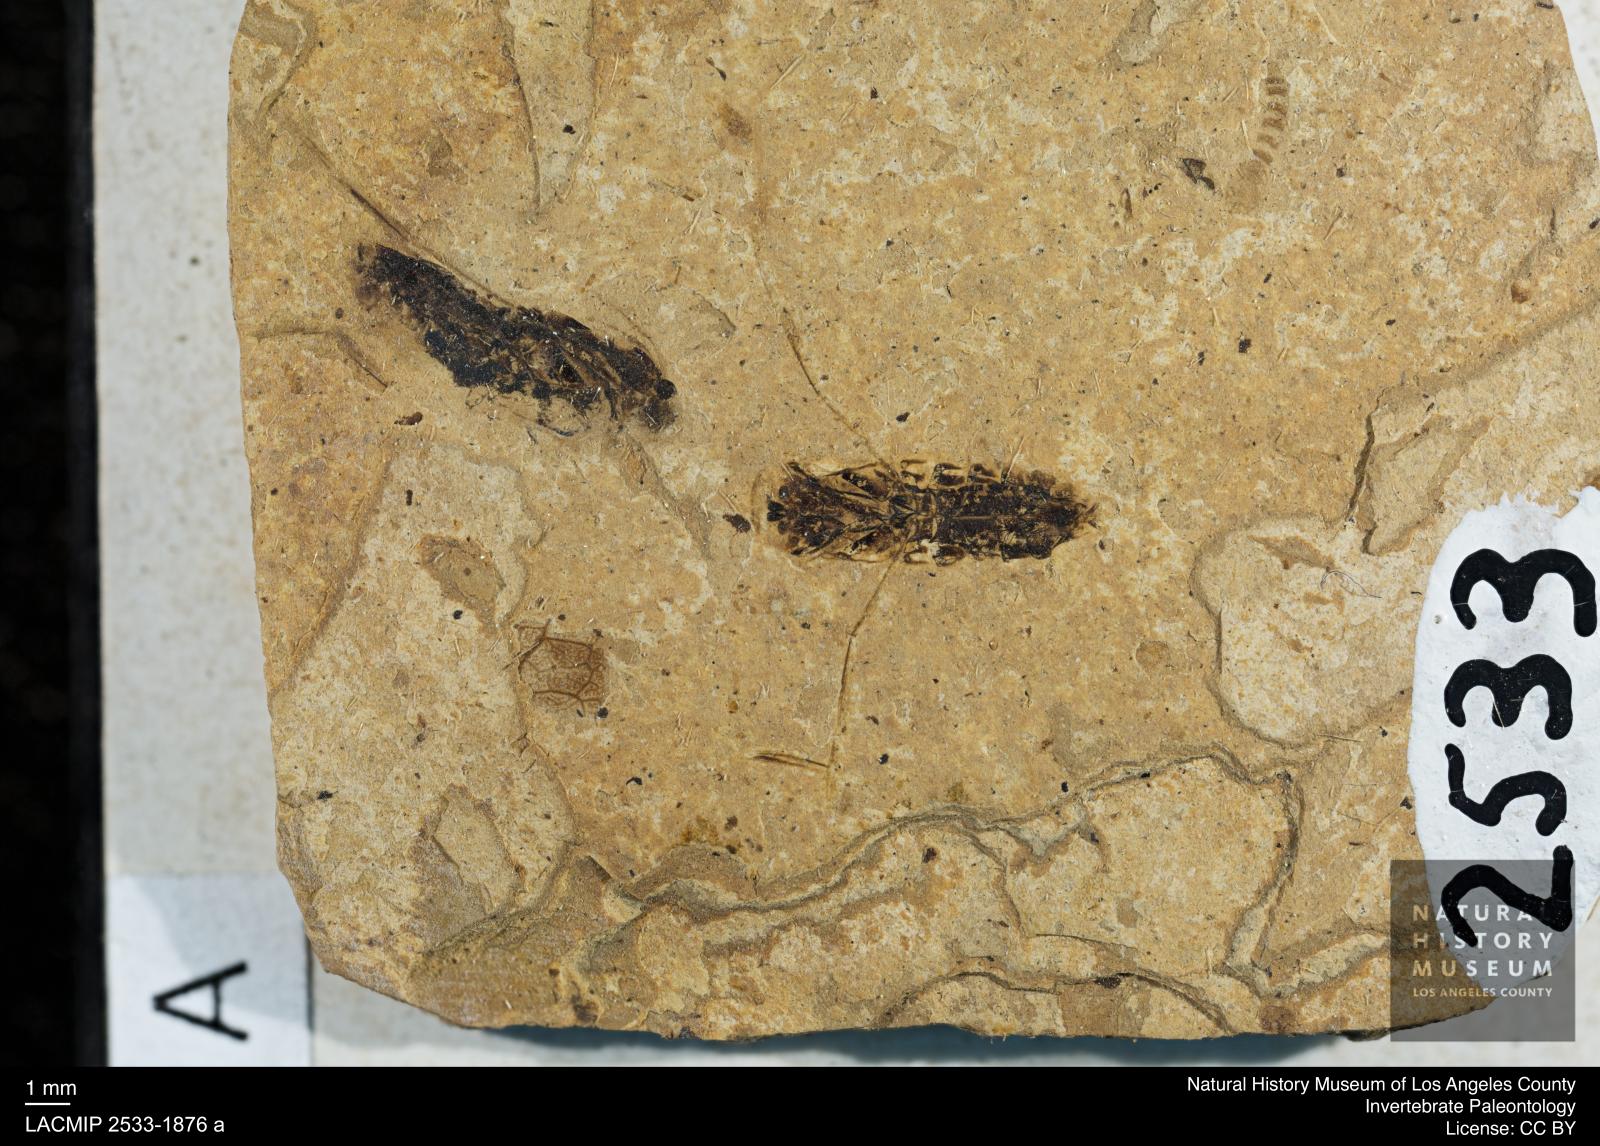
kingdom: Animalia
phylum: Arthropoda
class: Insecta
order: Hemiptera
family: Notonectidae
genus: Anisops
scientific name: Anisops Notonecta deichmuelleri
